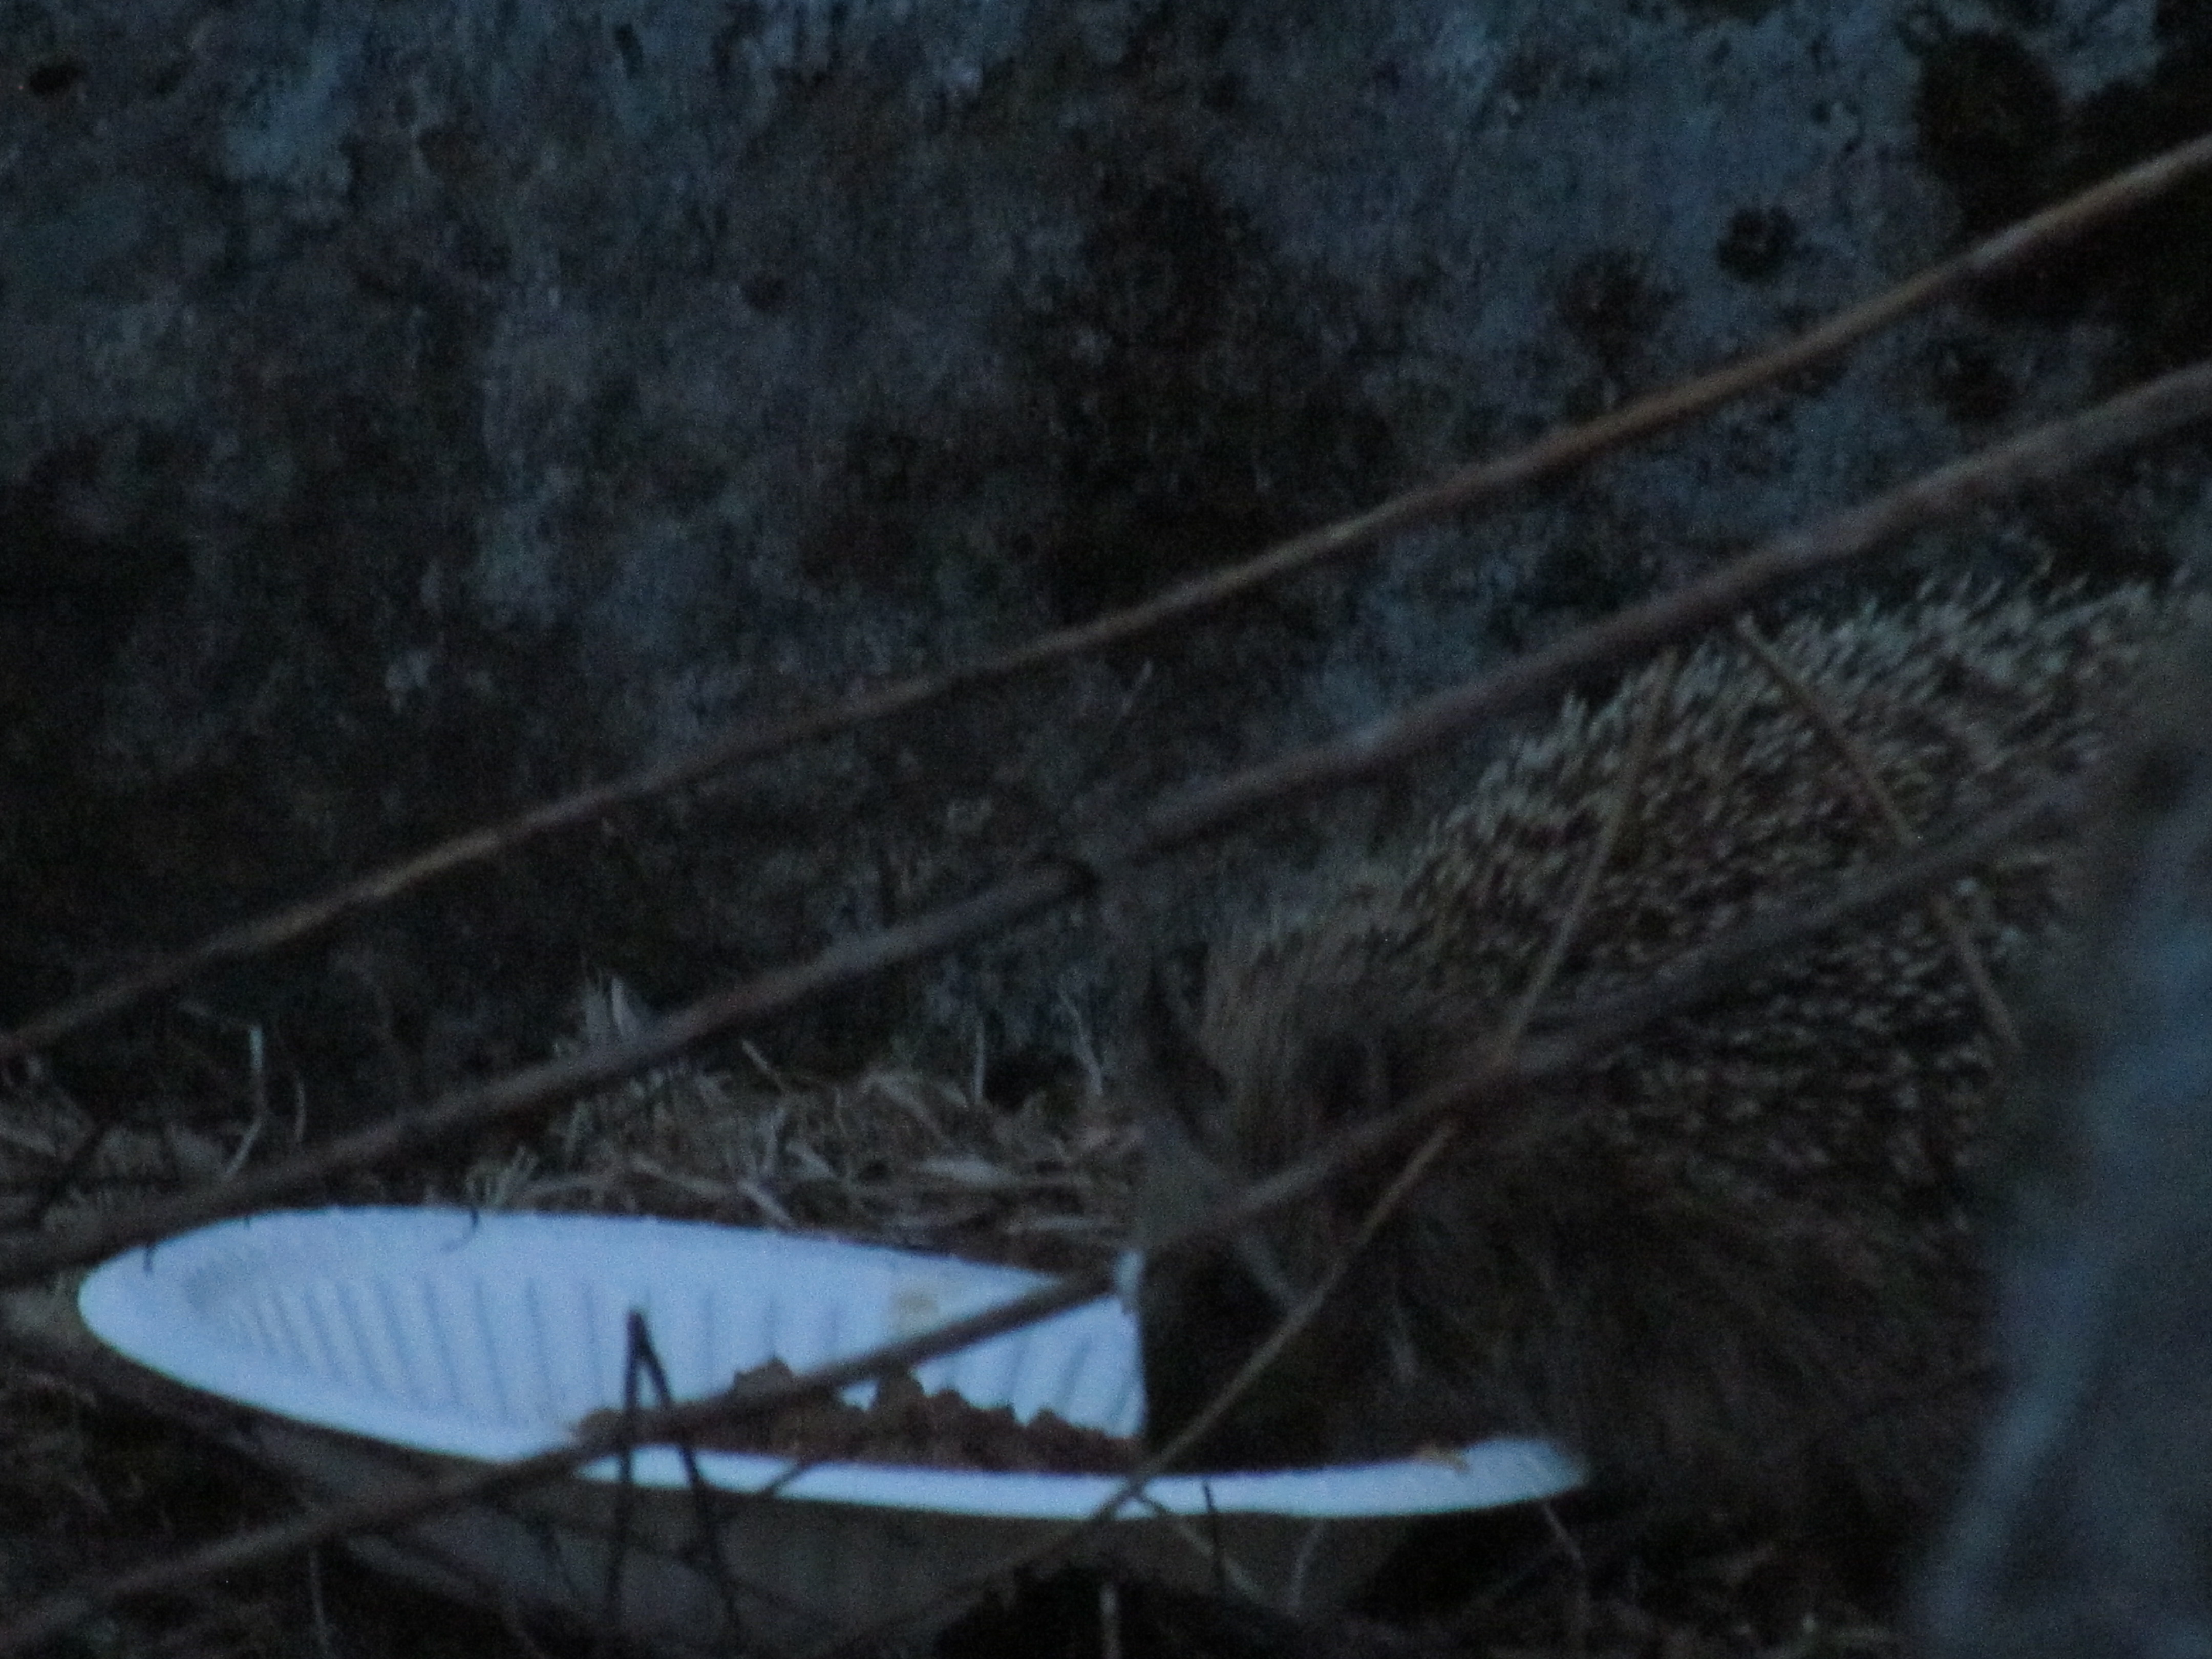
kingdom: Animalia
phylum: Chordata
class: Mammalia
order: Erinaceomorpha
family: Erinaceidae
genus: Erinaceus
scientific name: Erinaceus europaeus
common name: West european hedgehog
